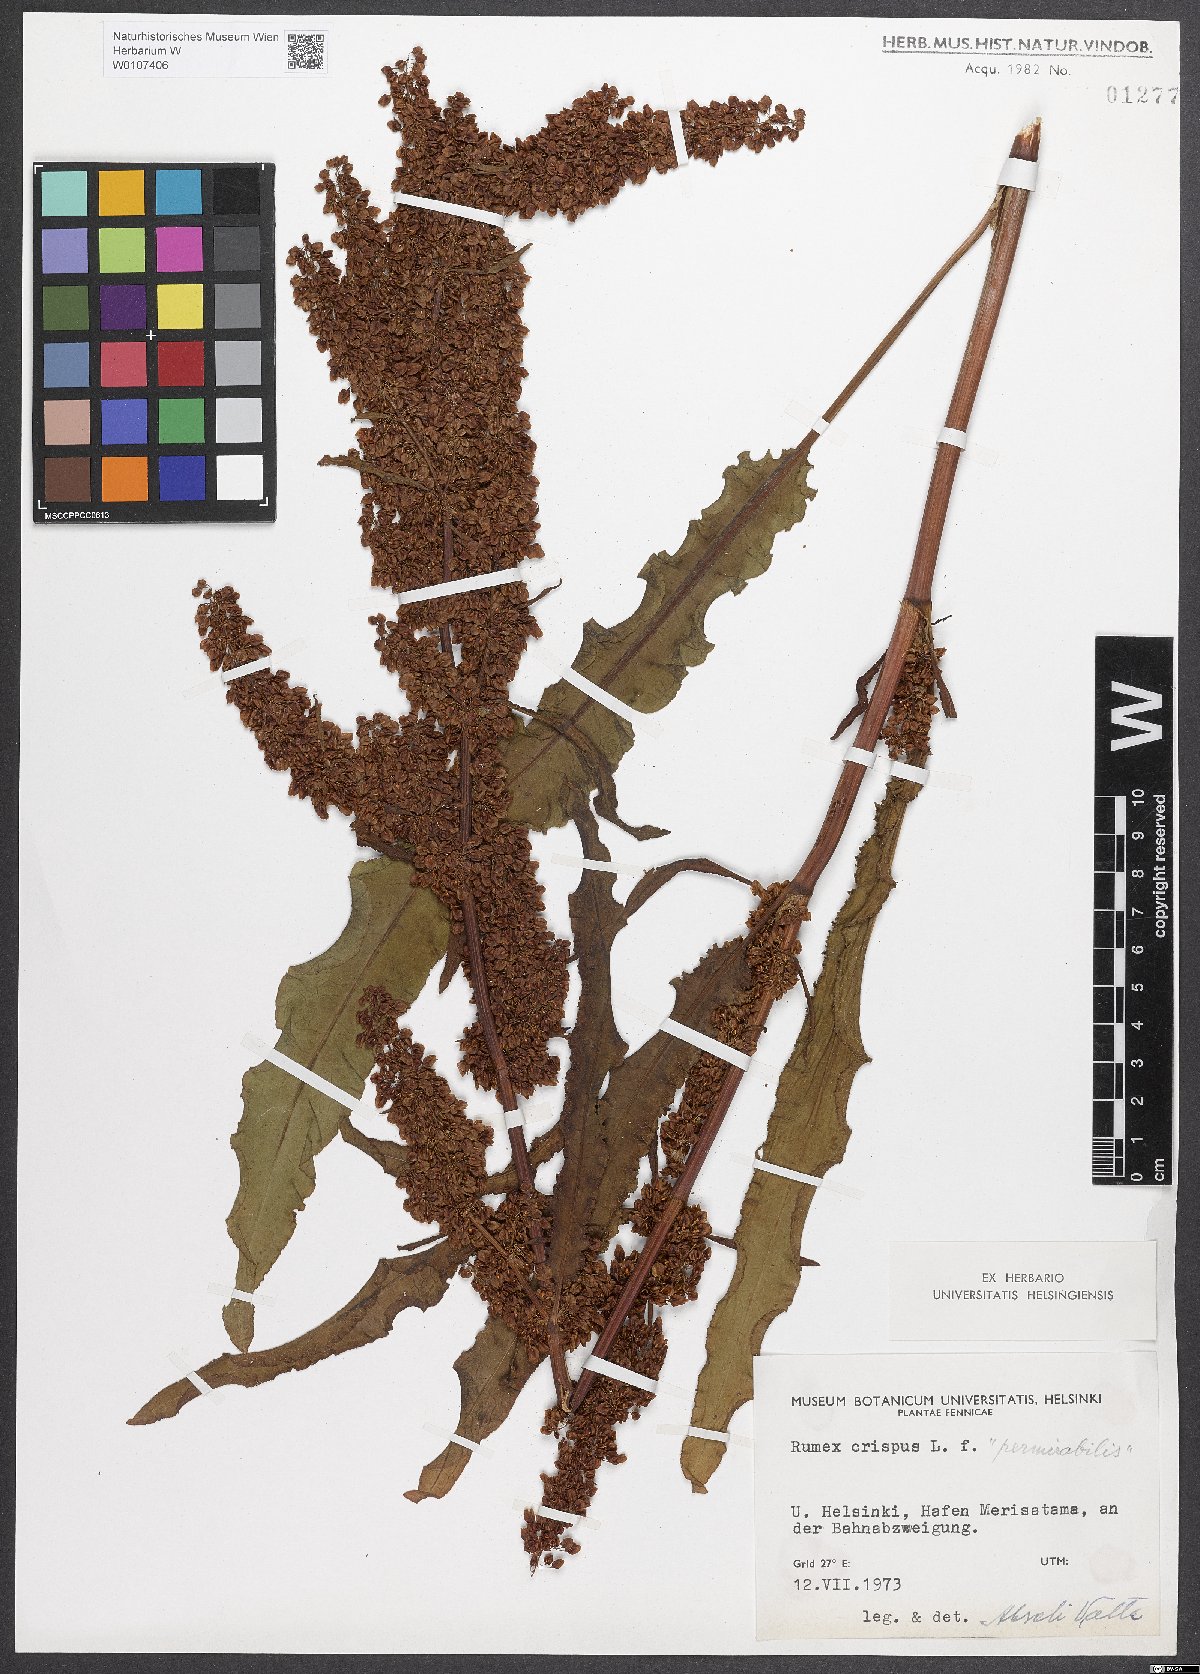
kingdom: Plantae
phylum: Tracheophyta
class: Magnoliopsida
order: Caryophyllales
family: Polygonaceae
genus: Rumex
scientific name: Rumex crispus
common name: Curled dock
